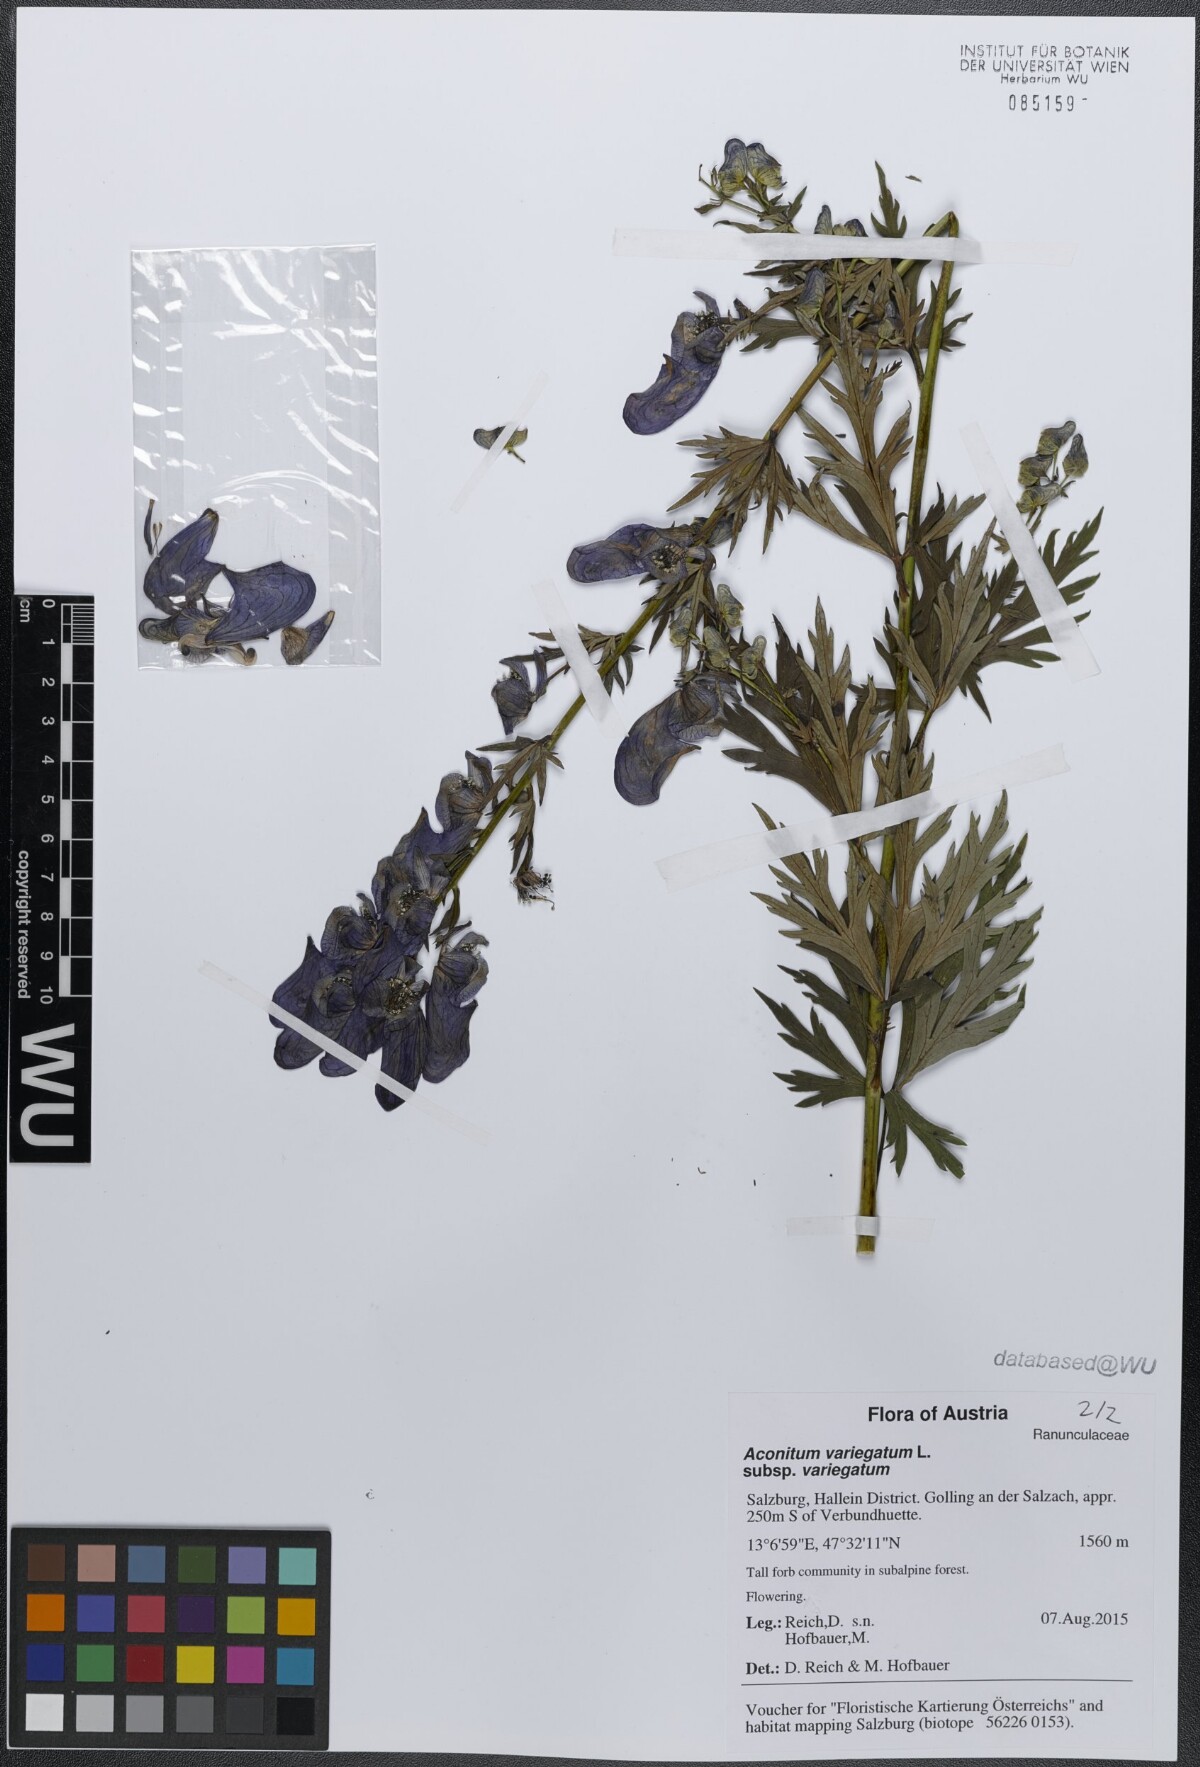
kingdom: Plantae
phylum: Tracheophyta
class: Magnoliopsida
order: Ranunculales
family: Ranunculaceae
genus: Aconitum
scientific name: Aconitum variegatum
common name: Manchurian monkshood
